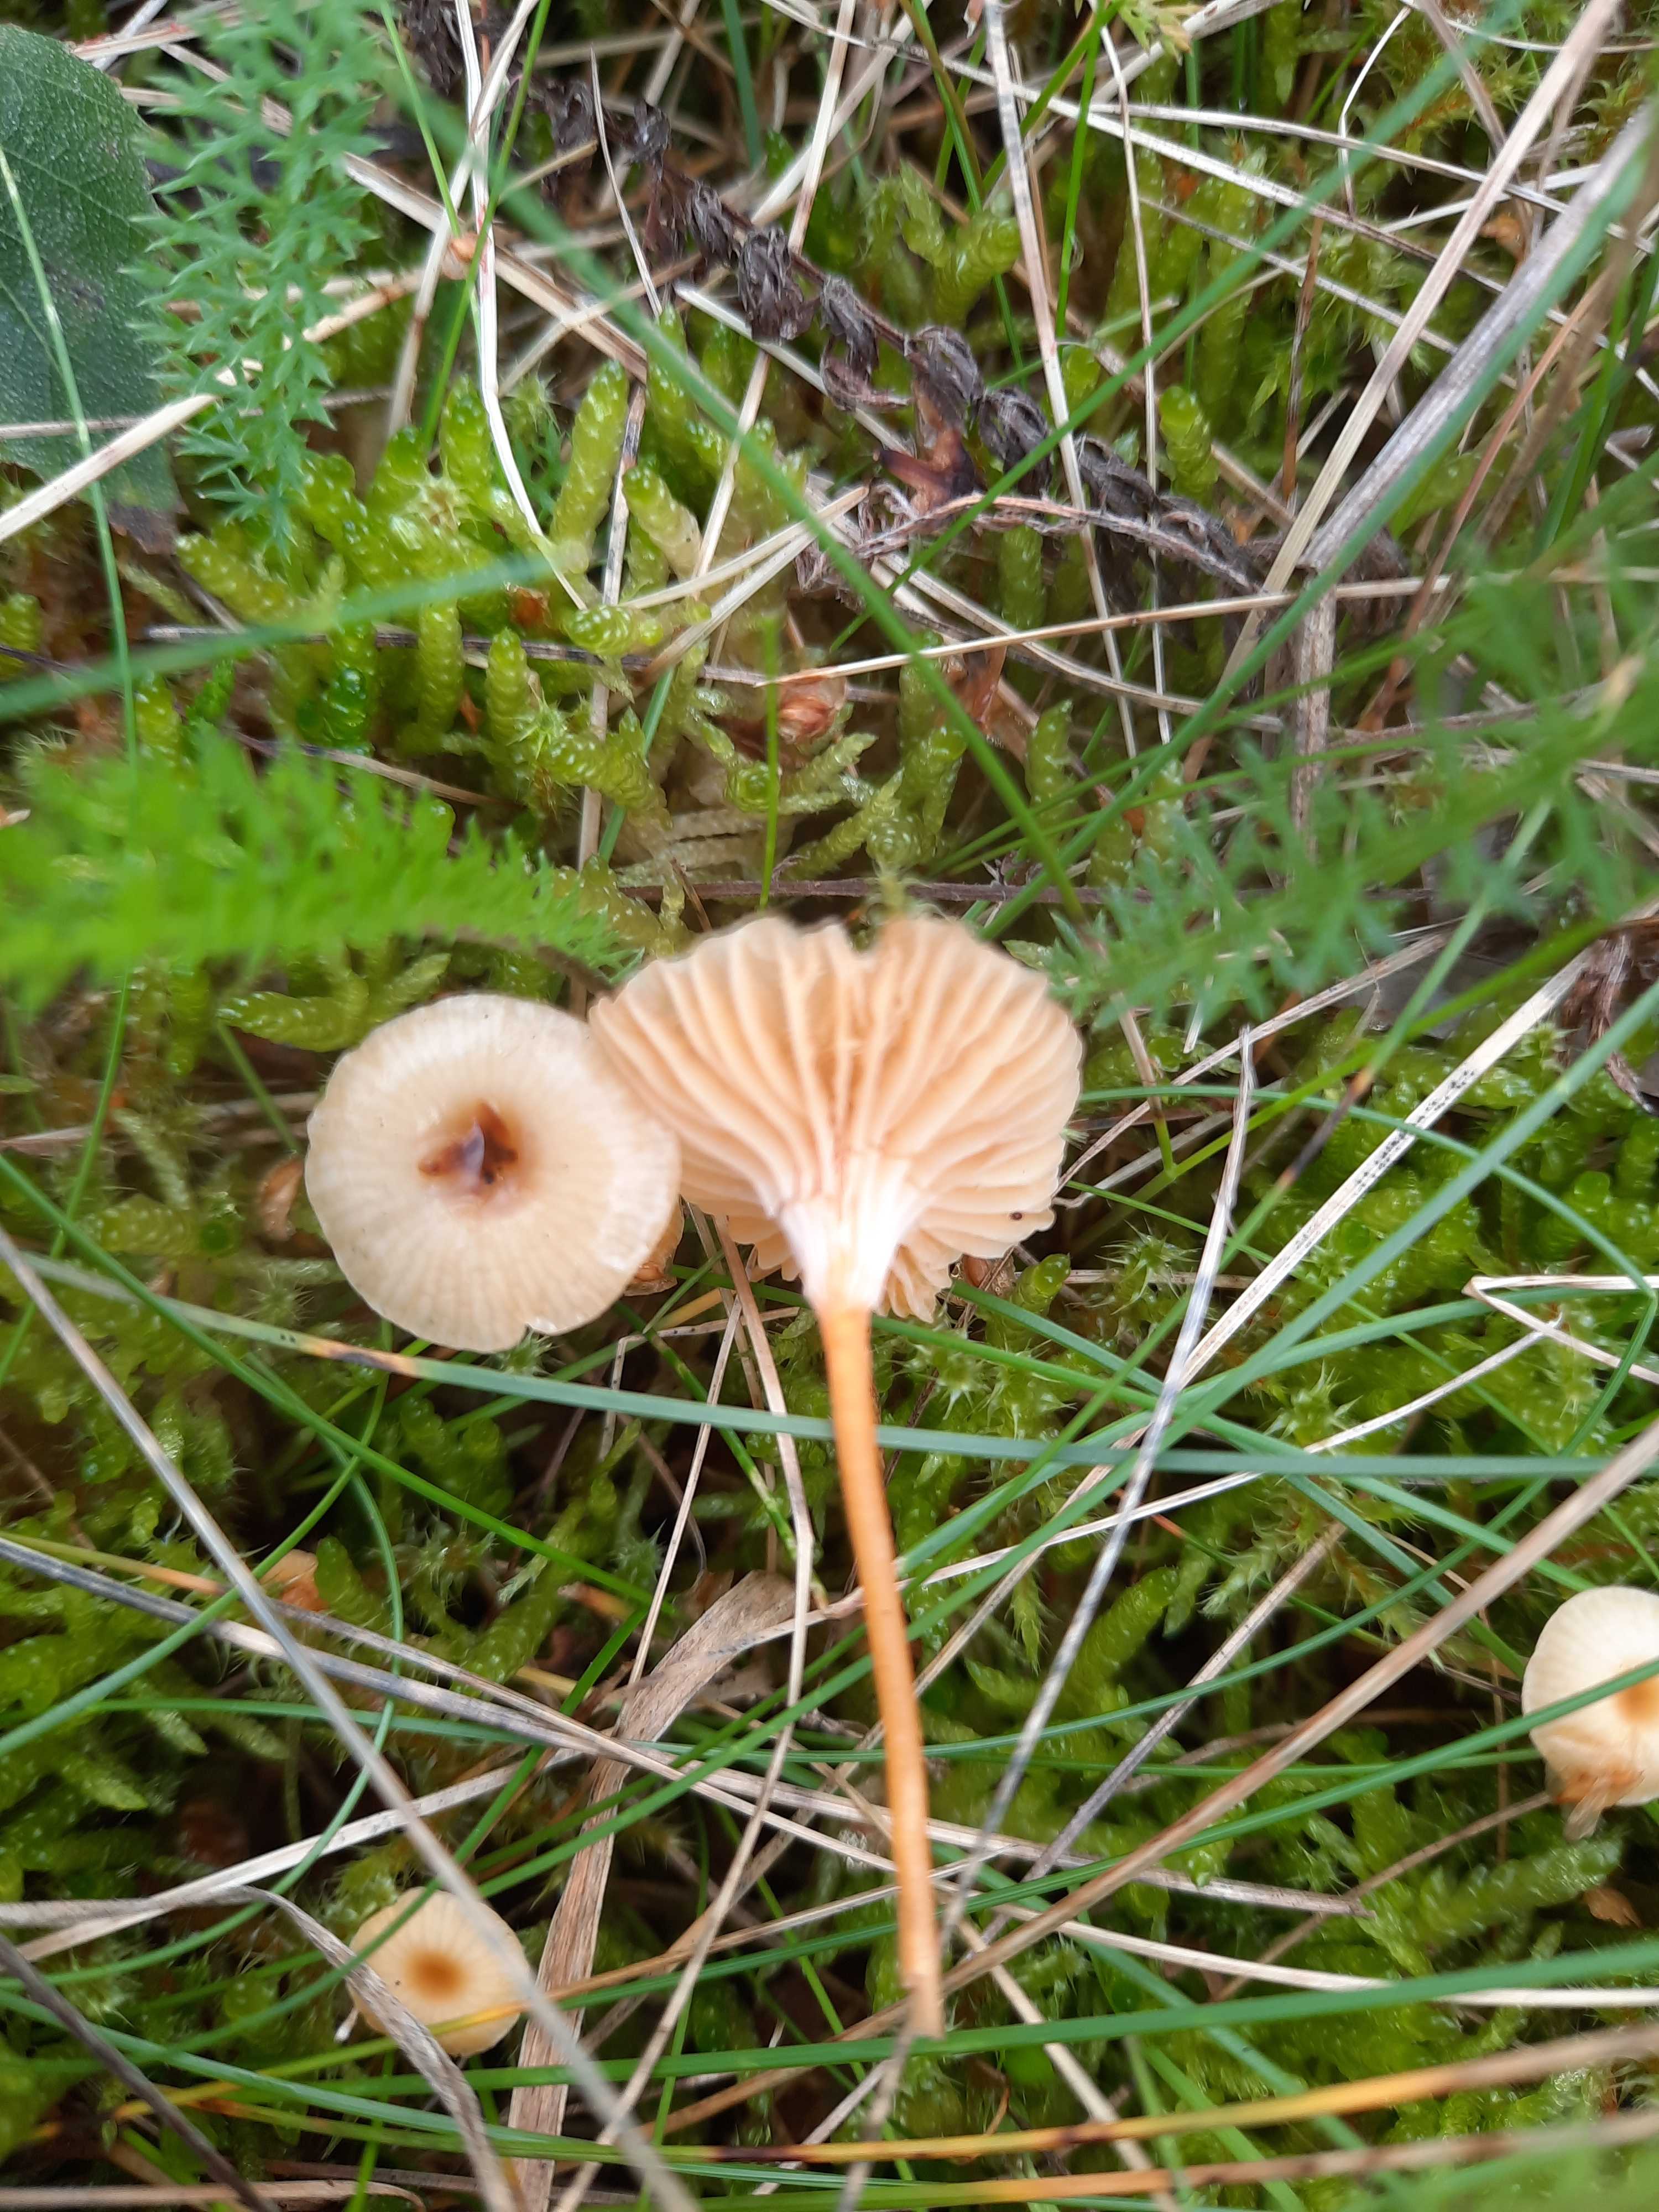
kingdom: Fungi
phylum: Basidiomycota
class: Agaricomycetes
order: Hymenochaetales
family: Rickenellaceae
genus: Rickenella
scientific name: Rickenella fibula
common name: orange mosnavlehat
